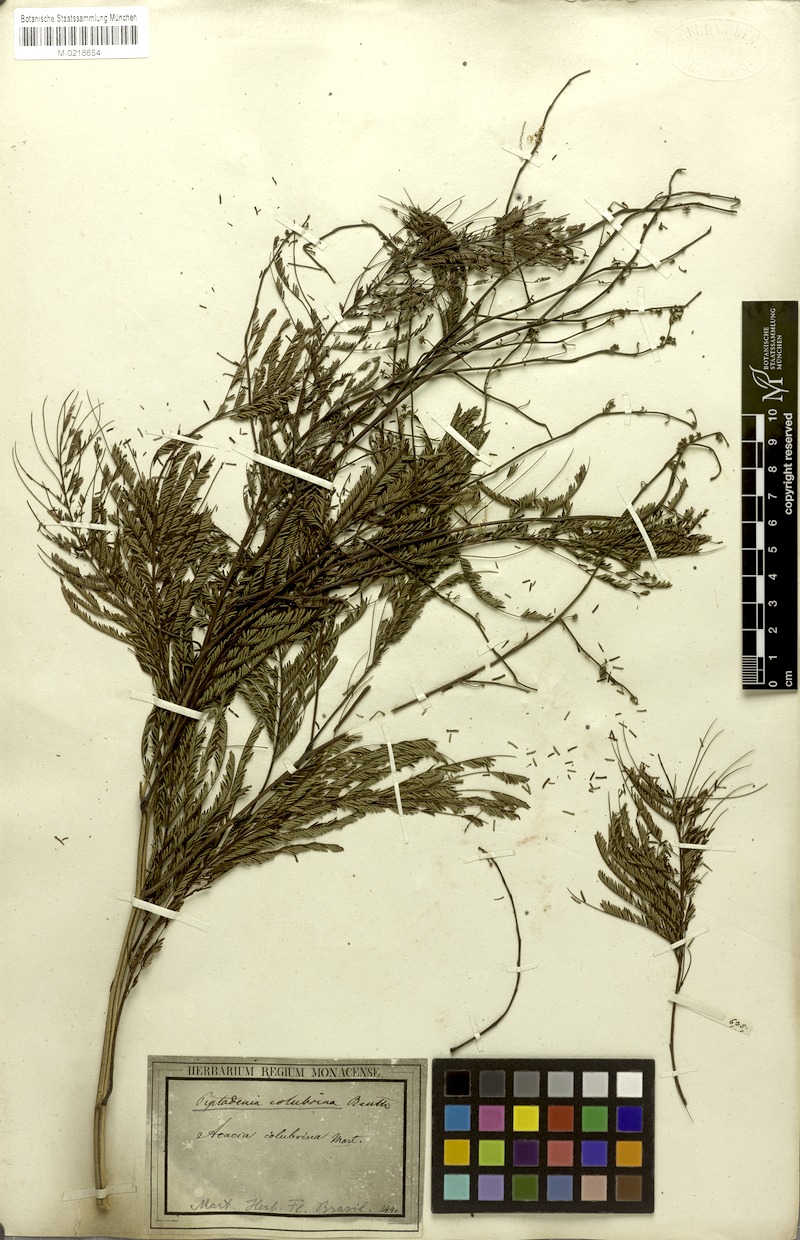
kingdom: Plantae
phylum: Tracheophyta
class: Magnoliopsida
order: Fabales
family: Fabaceae
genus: Anadenanthera
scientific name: Anadenanthera colubrina
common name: Curupay
